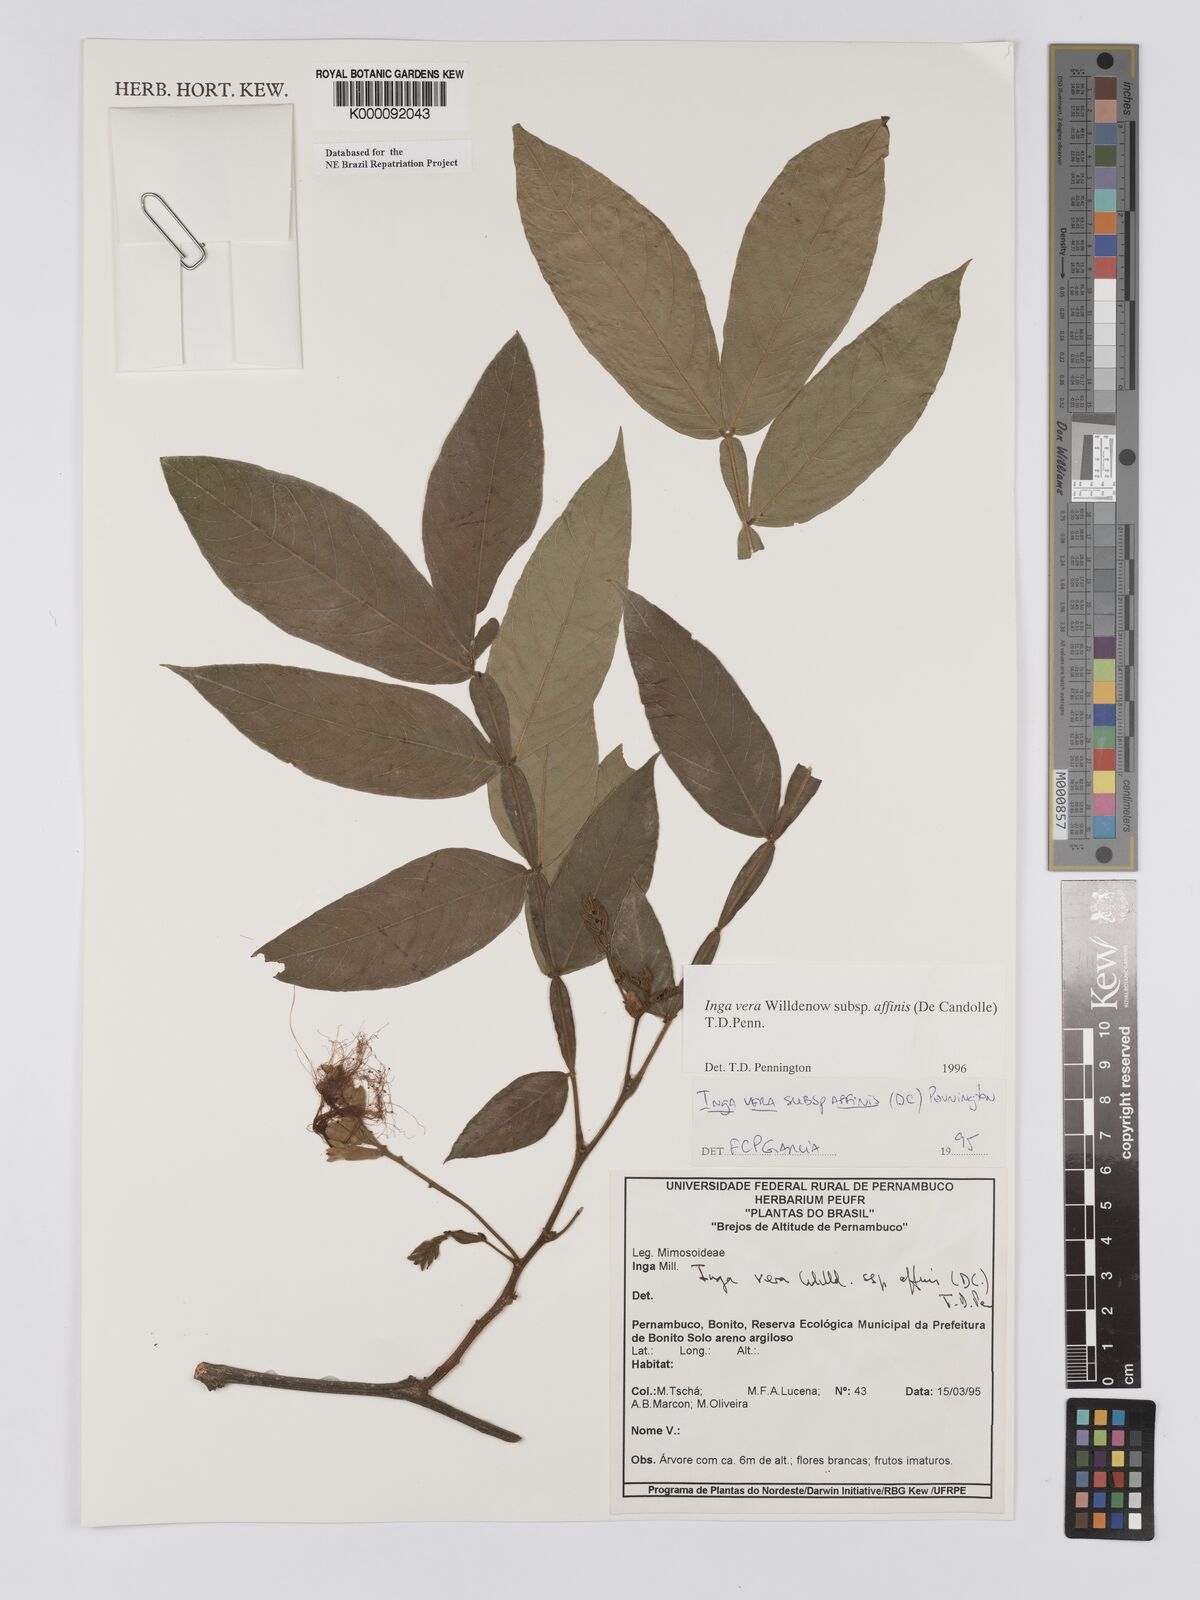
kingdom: Plantae
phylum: Tracheophyta
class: Magnoliopsida
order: Fabales
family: Fabaceae
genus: Inga
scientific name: Inga affinis
